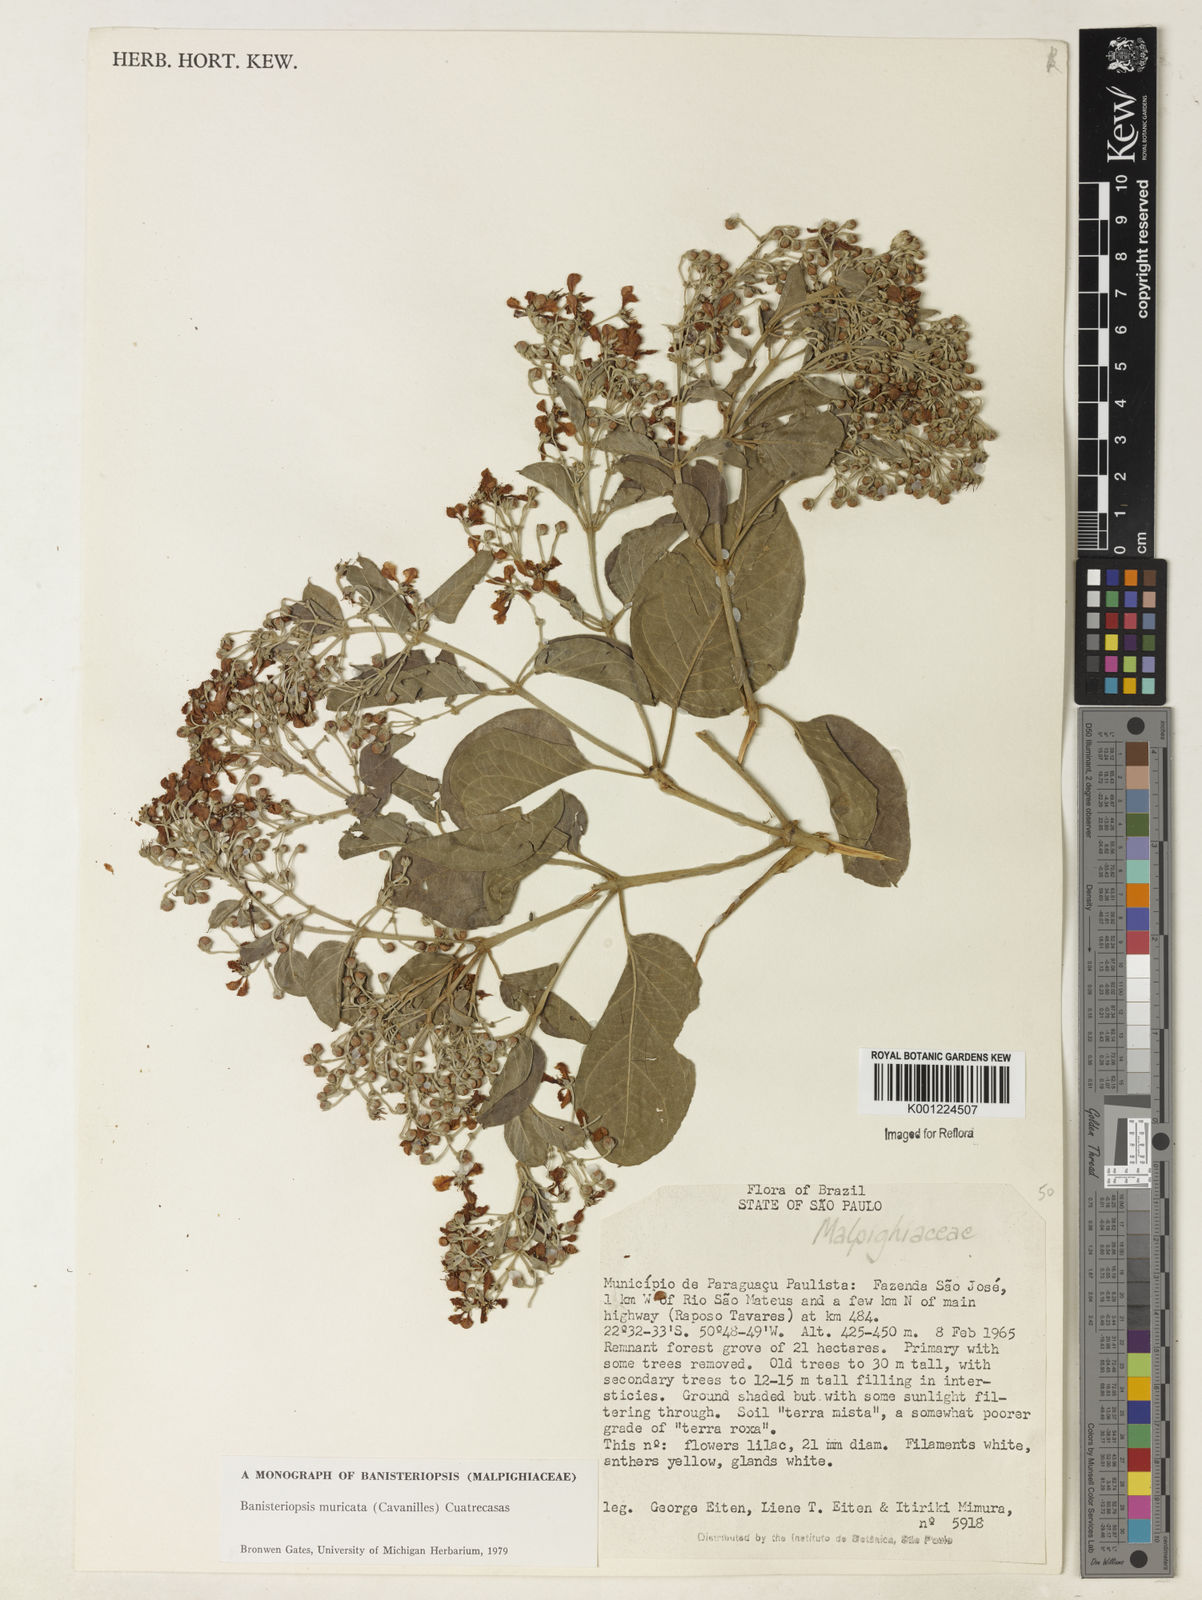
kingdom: Plantae
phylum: Tracheophyta
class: Magnoliopsida
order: Malpighiales
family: Malpighiaceae
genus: Banisteriopsis
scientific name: Banisteriopsis muricata
